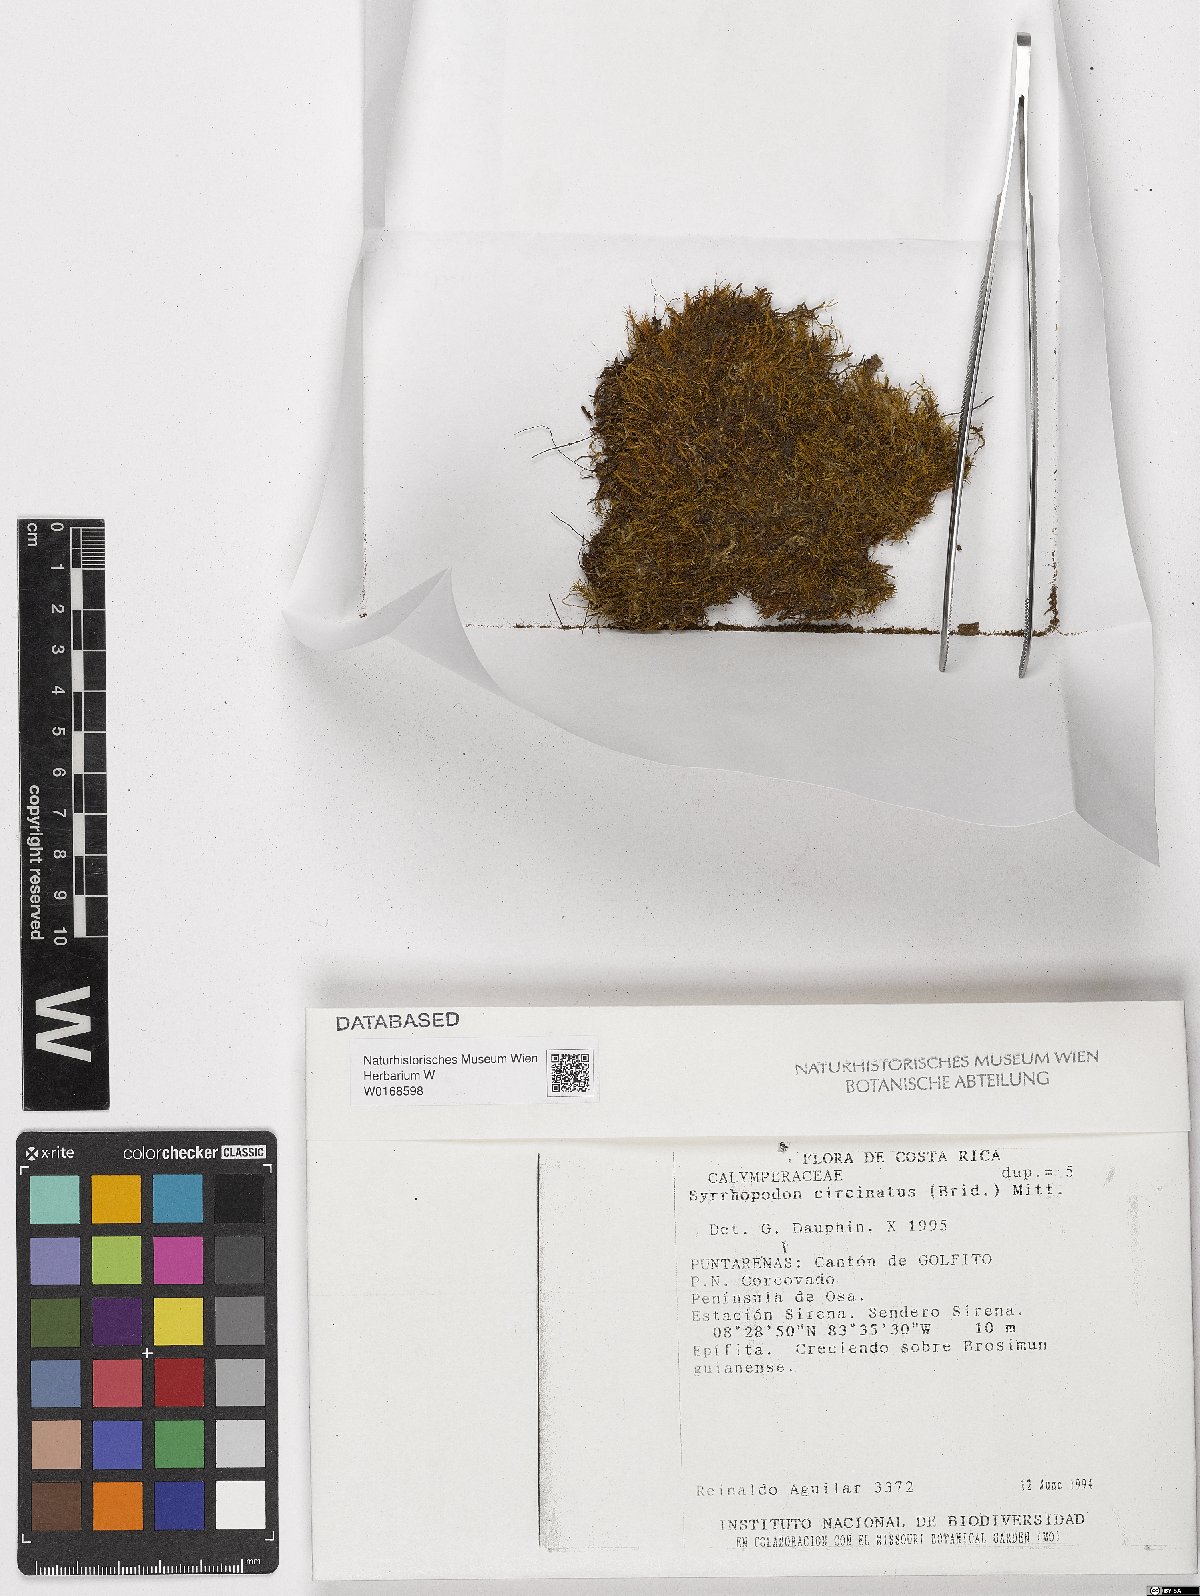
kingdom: Plantae
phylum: Bryophyta
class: Bryopsida
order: Dicranales
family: Calymperaceae
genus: Syrrhopodon
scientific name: Syrrhopodon circinatus
